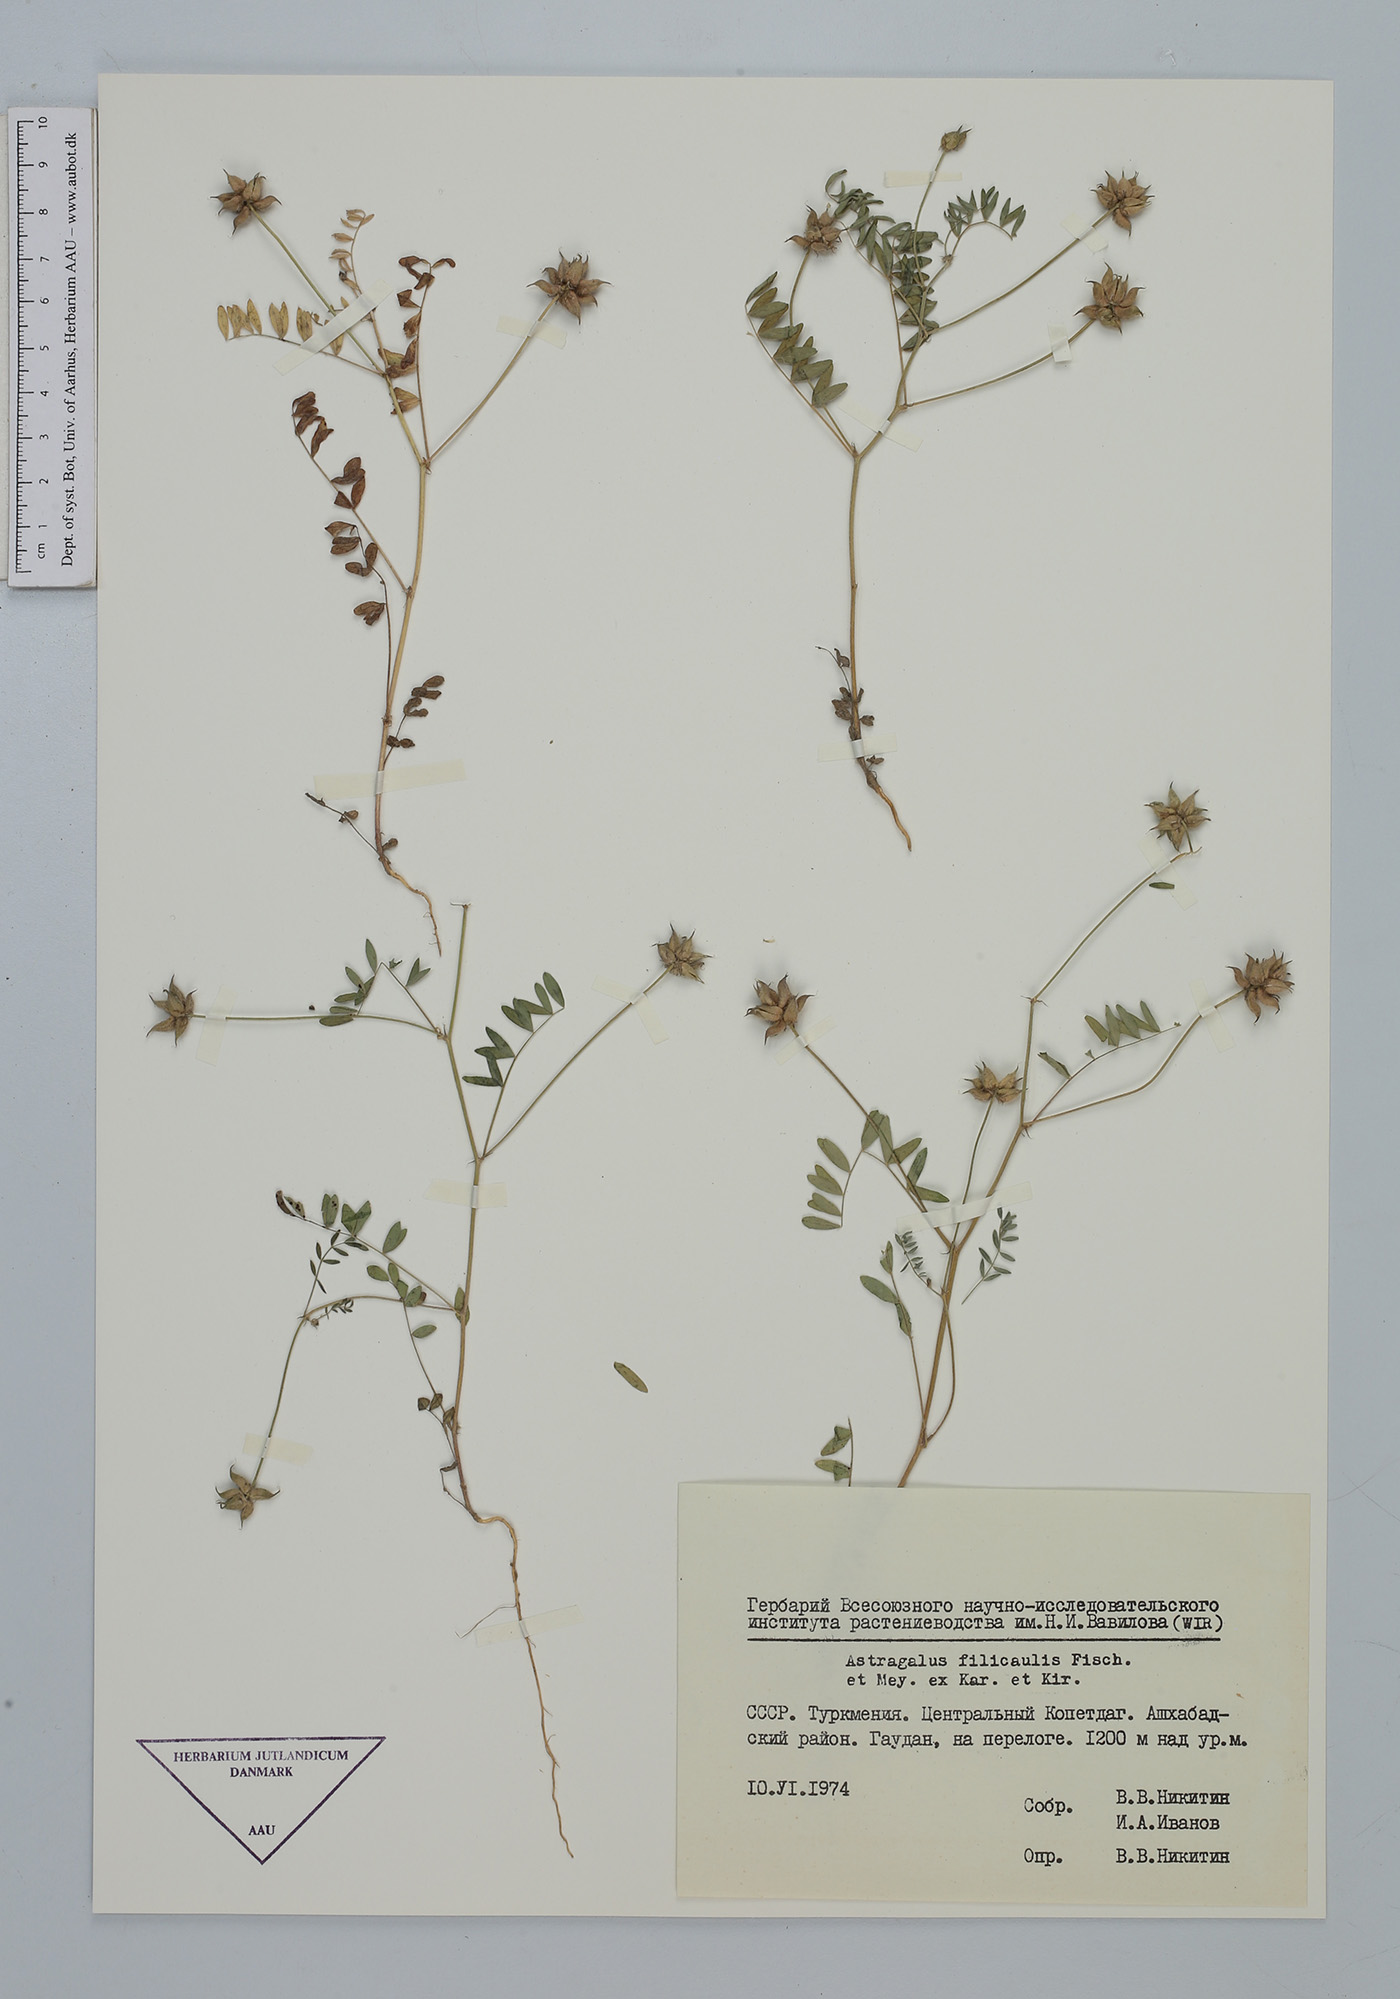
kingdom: Plantae
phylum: Tracheophyta
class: Magnoliopsida
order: Fabales
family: Fabaceae
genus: Astragalus
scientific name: Astragalus filicaulis
